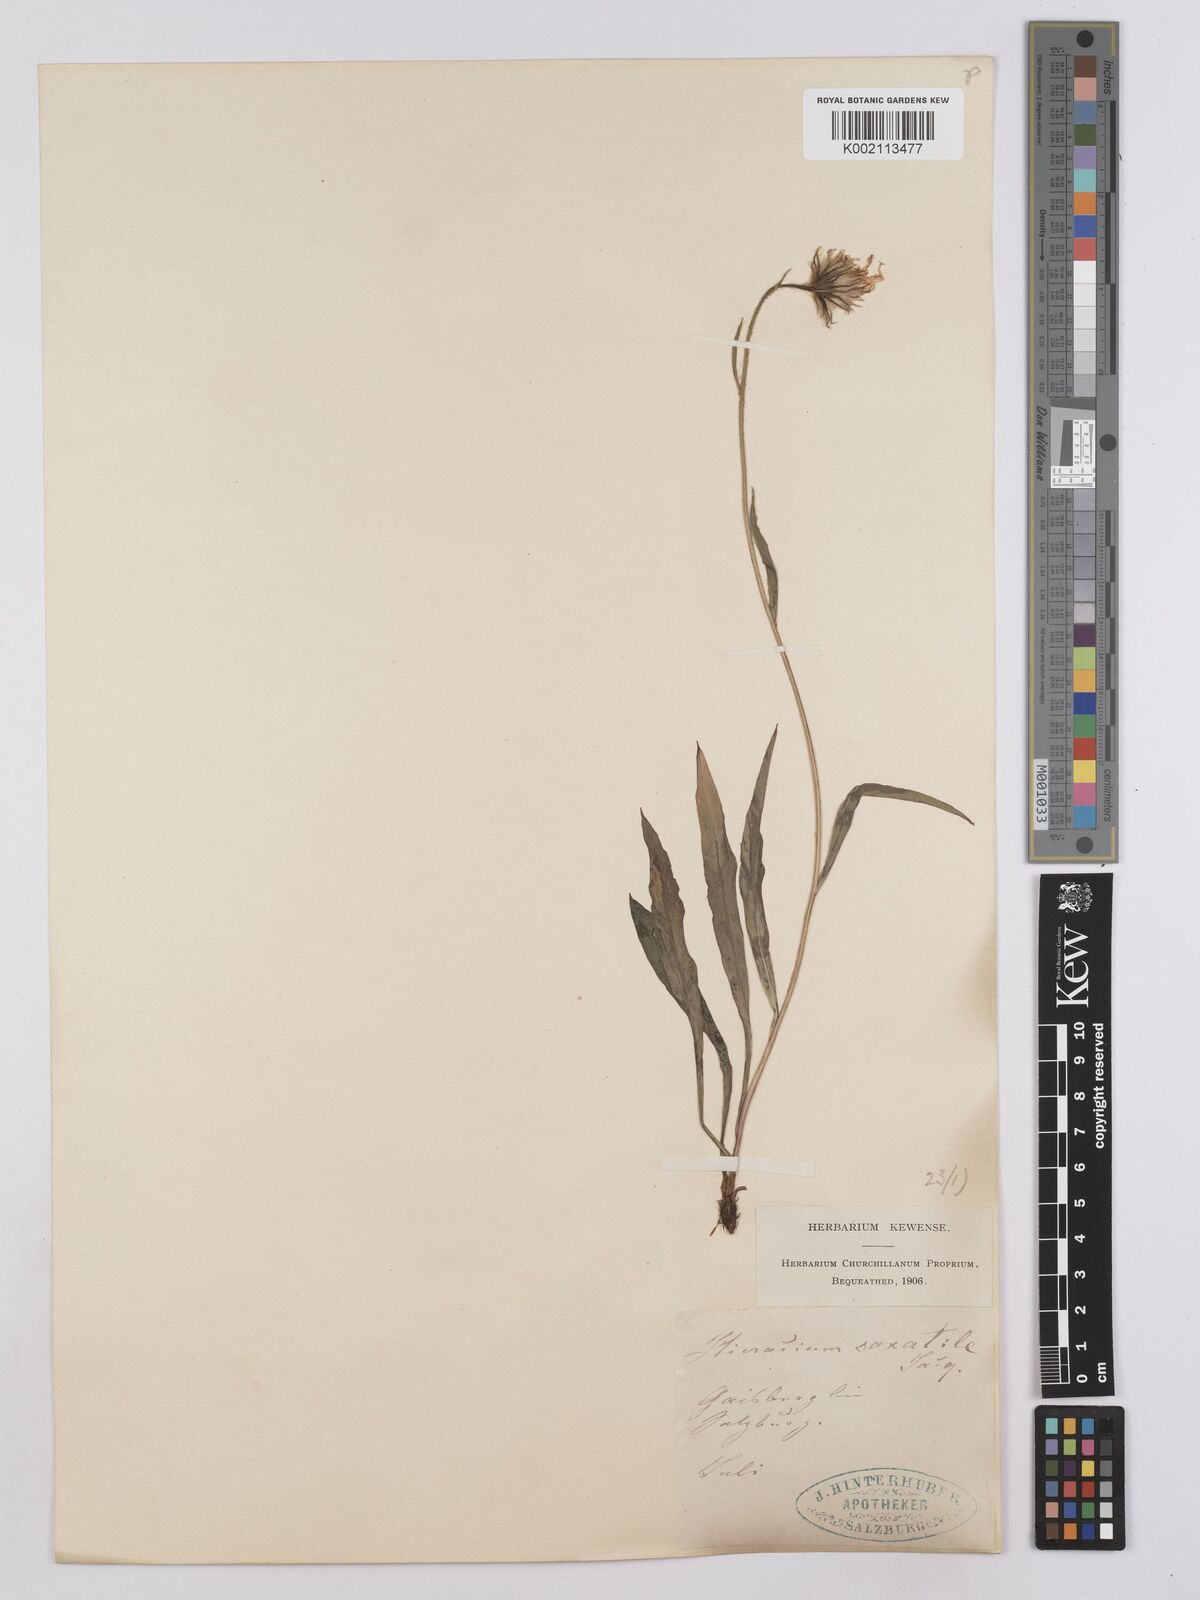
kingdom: Plantae
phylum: Tracheophyta
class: Magnoliopsida
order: Asterales
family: Asteraceae
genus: Hieracium
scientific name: Hieracium saxatile
